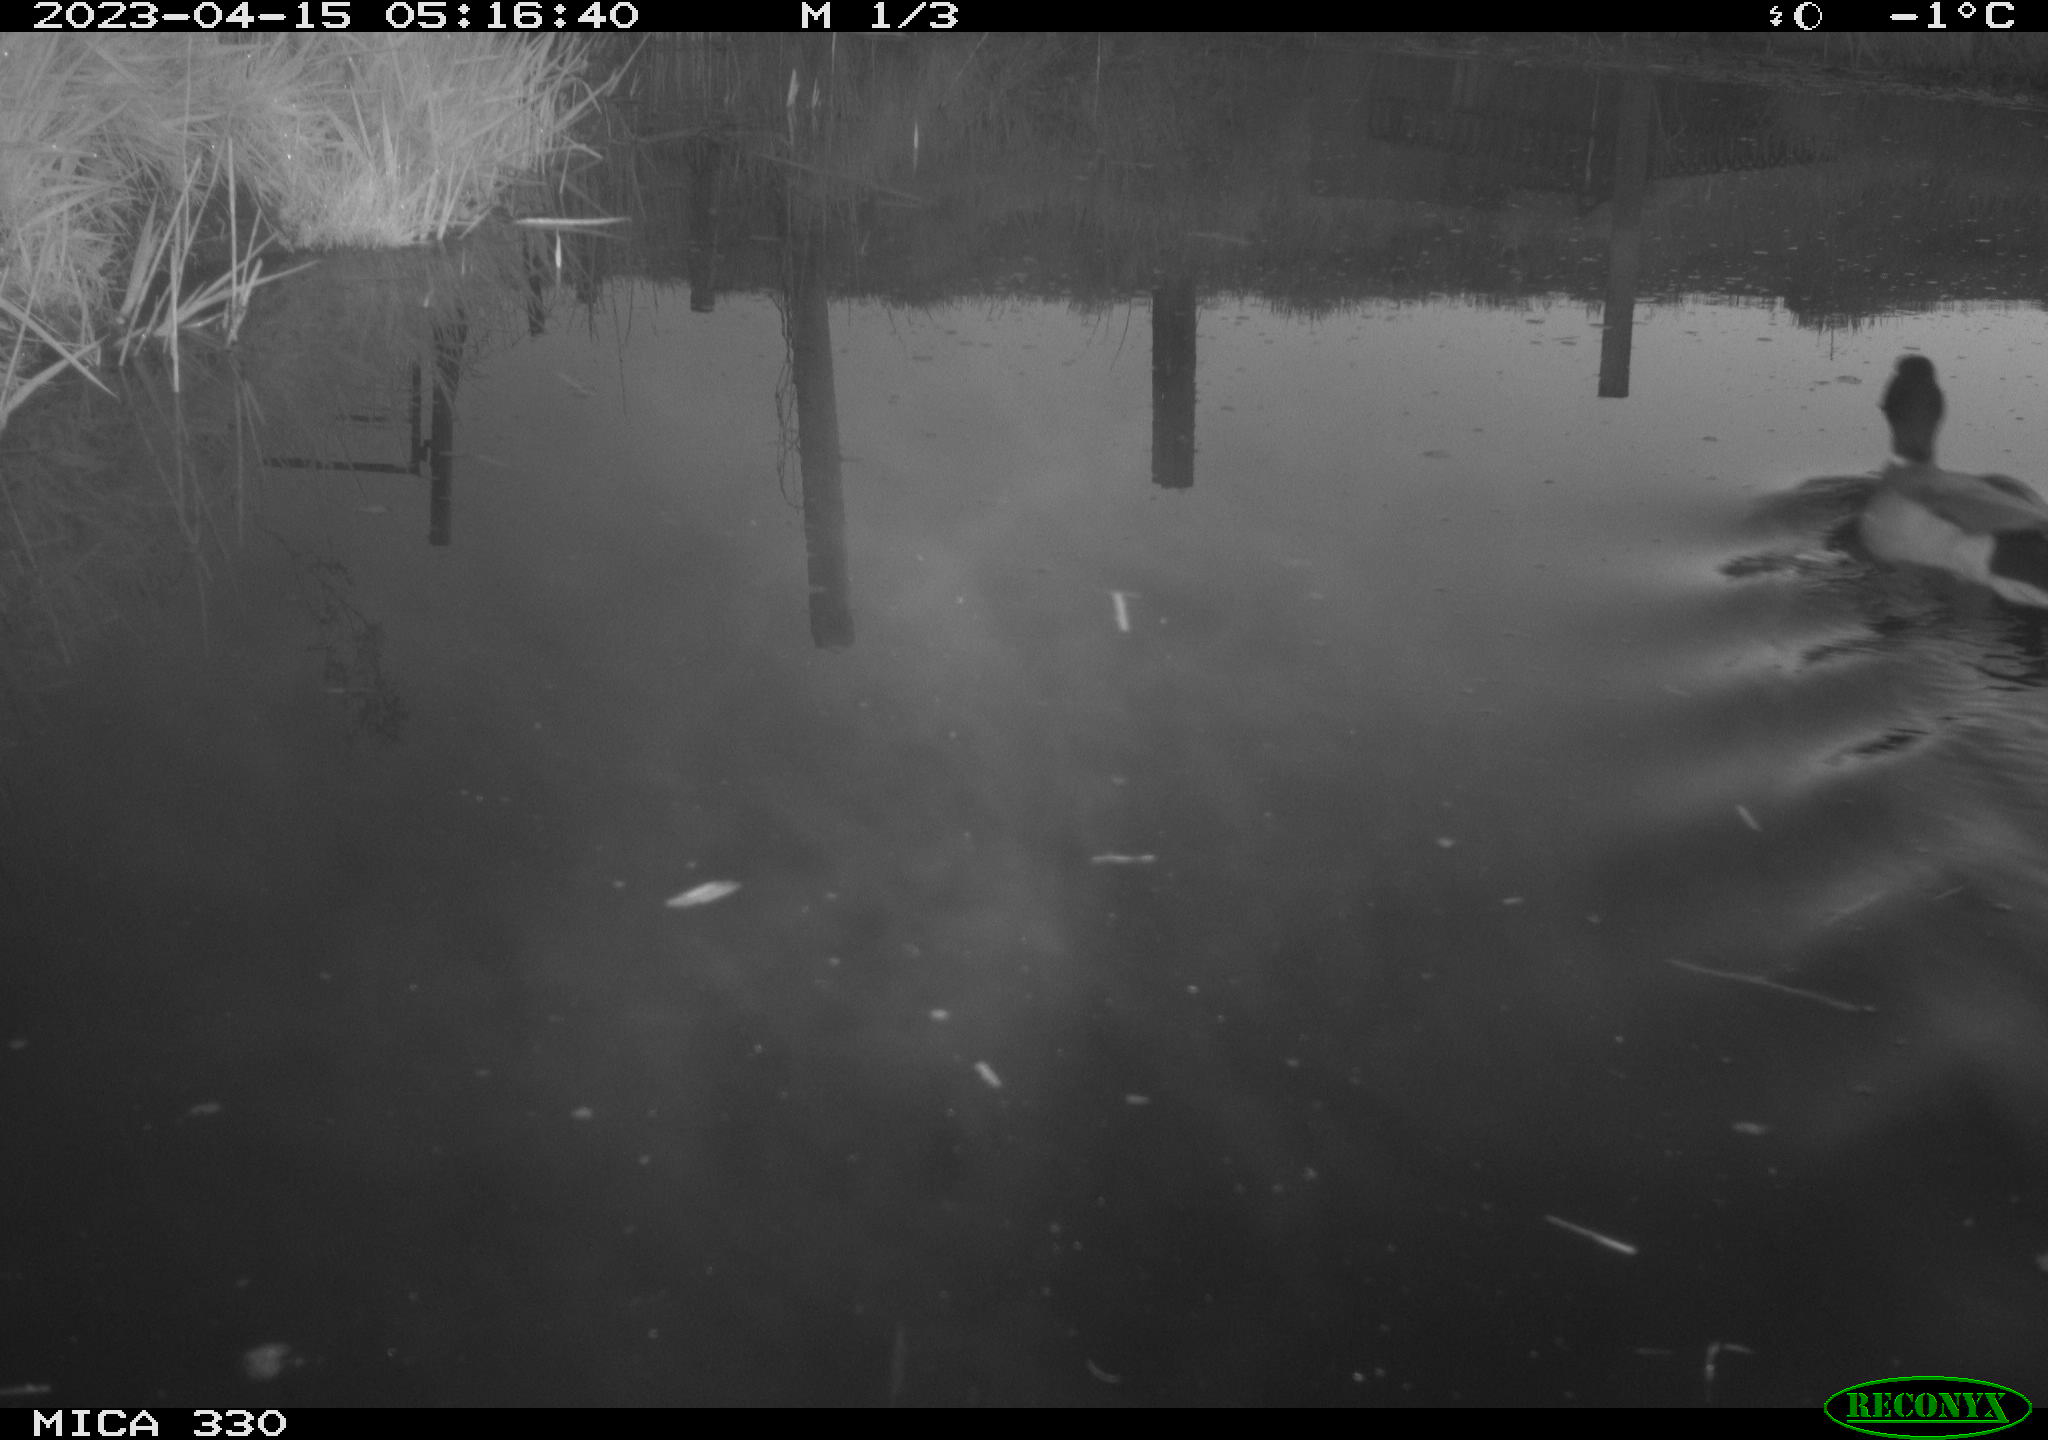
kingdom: Animalia
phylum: Chordata
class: Aves
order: Anseriformes
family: Anatidae
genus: Anas
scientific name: Anas
